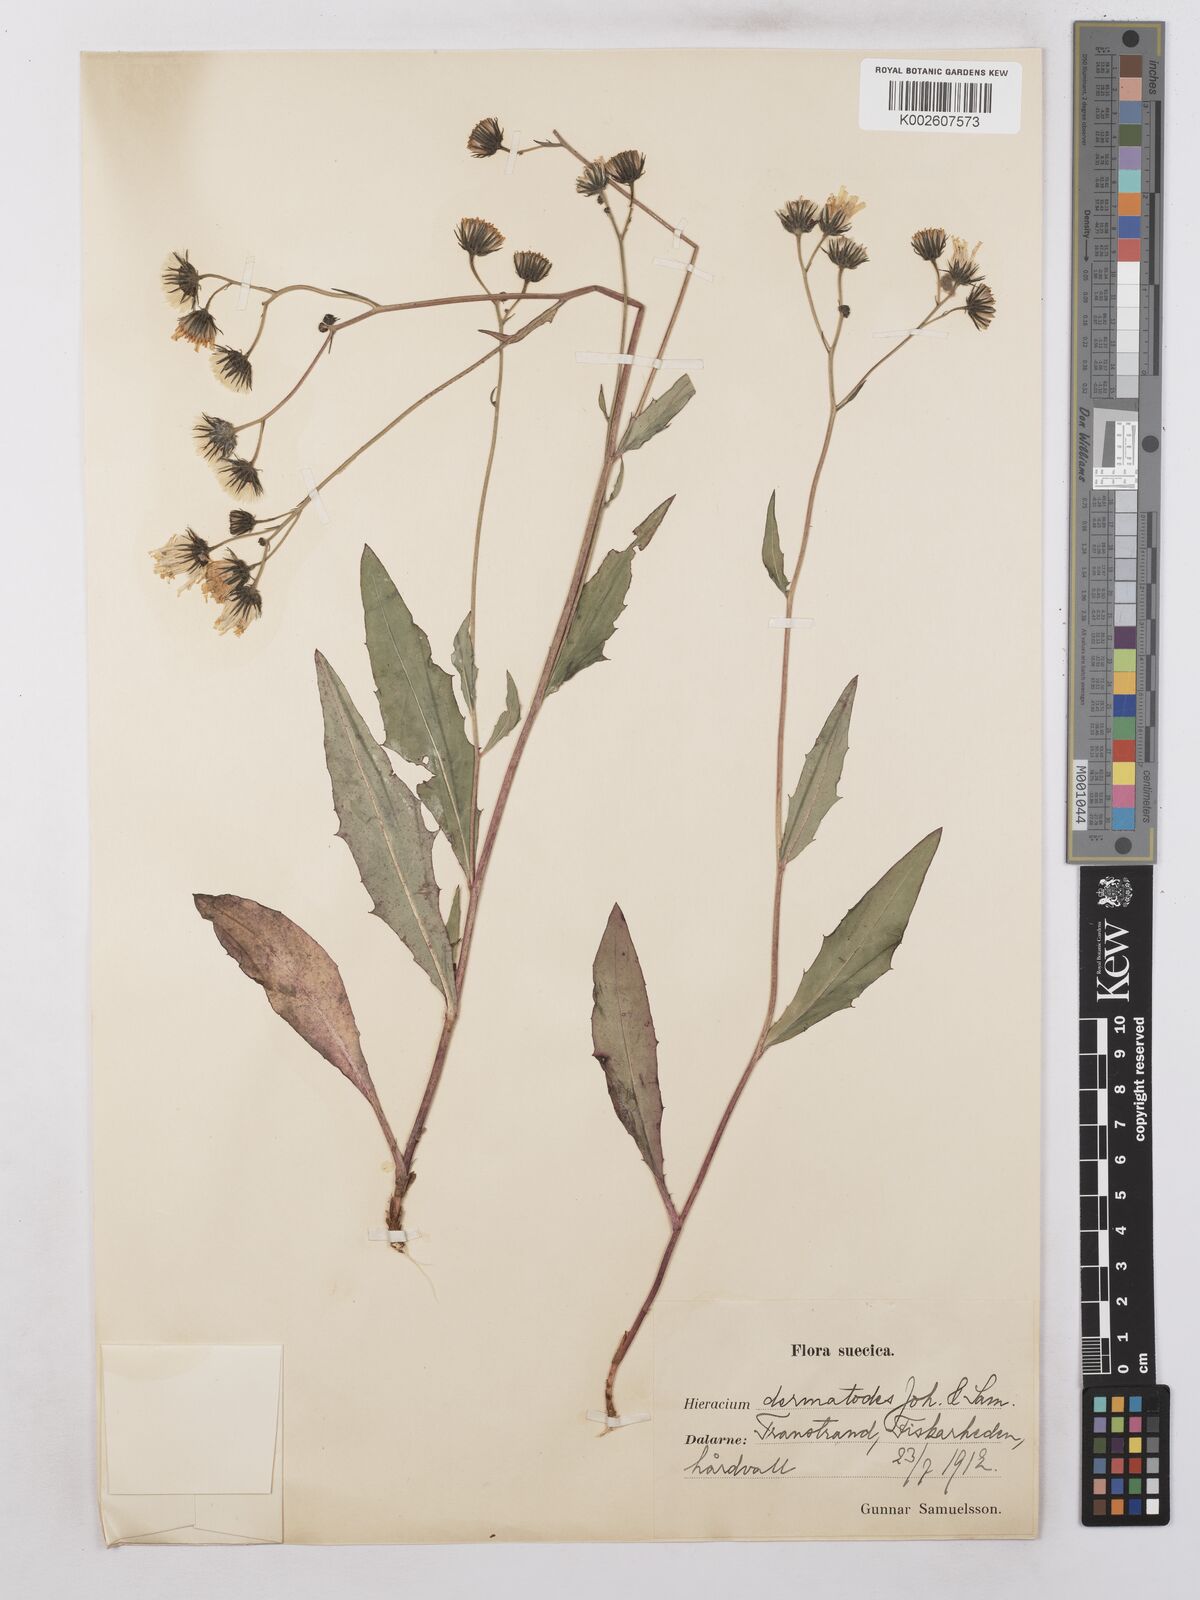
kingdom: Plantae
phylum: Tracheophyta
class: Magnoliopsida
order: Asterales
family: Asteraceae
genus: Hieracium
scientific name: Hieracium subramosum
